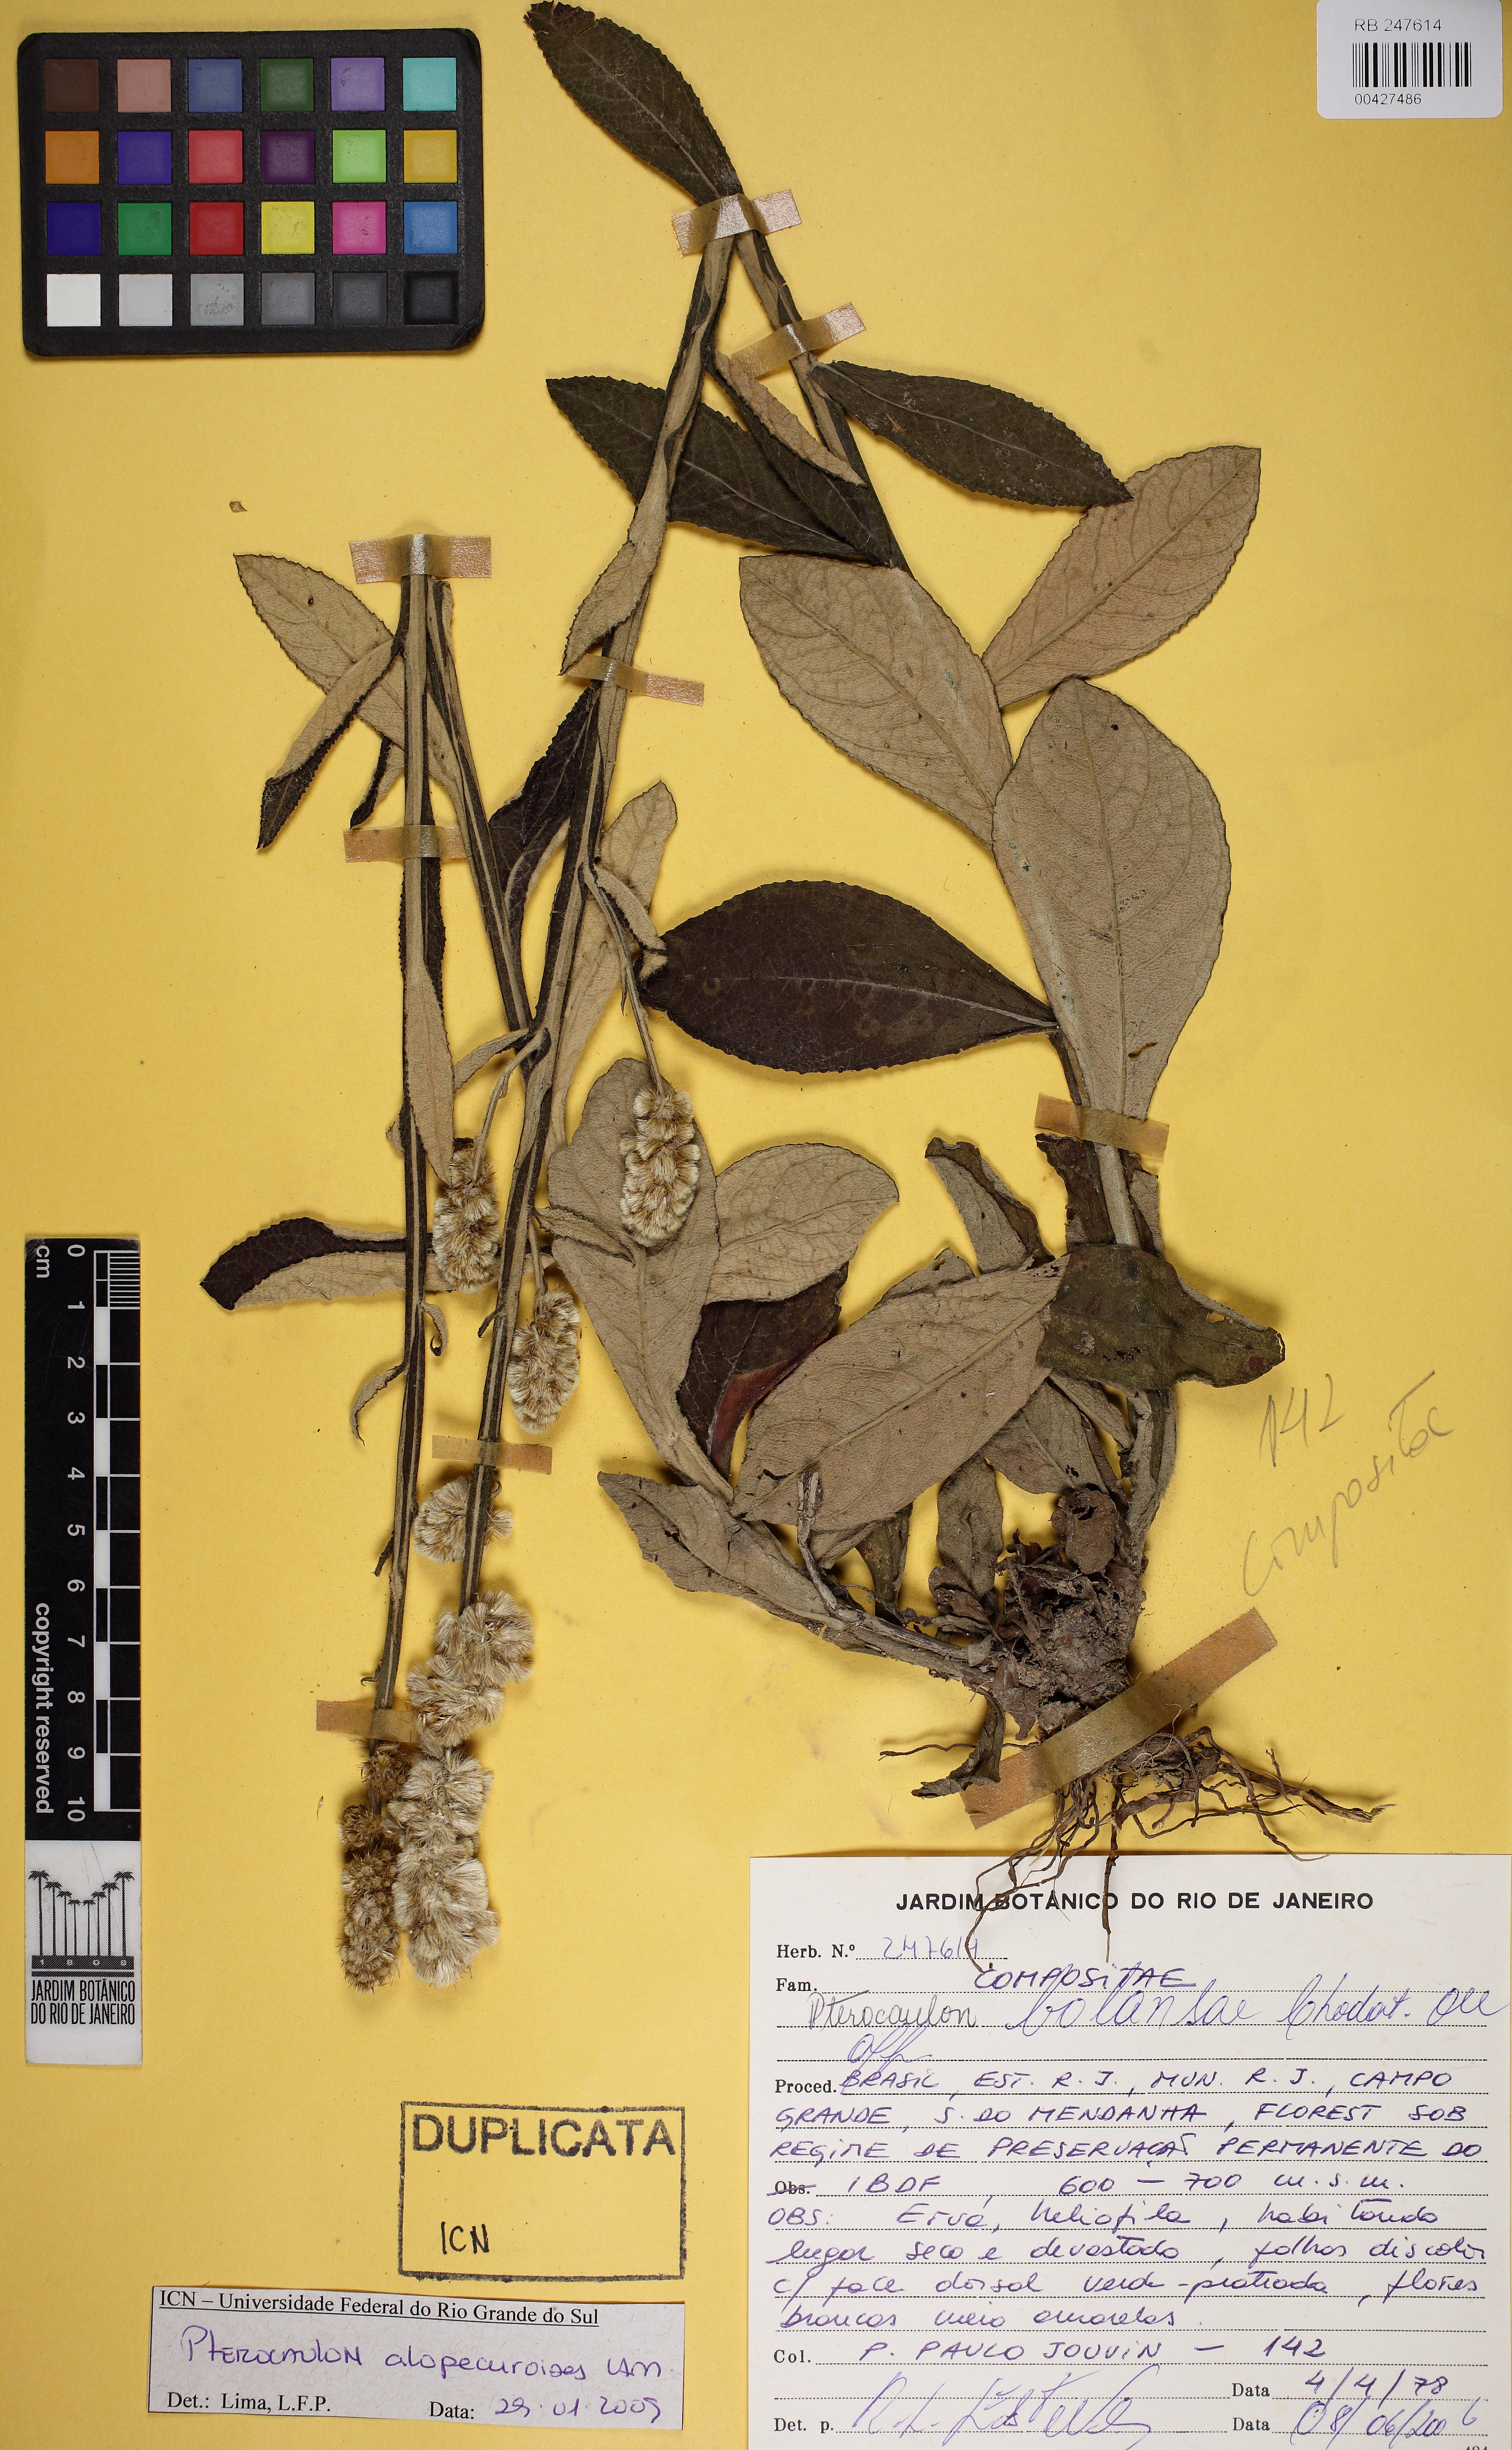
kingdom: Plantae
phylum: Tracheophyta
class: Magnoliopsida
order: Asterales
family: Asteraceae
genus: Pterocaulon
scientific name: Pterocaulon alopecuroides
